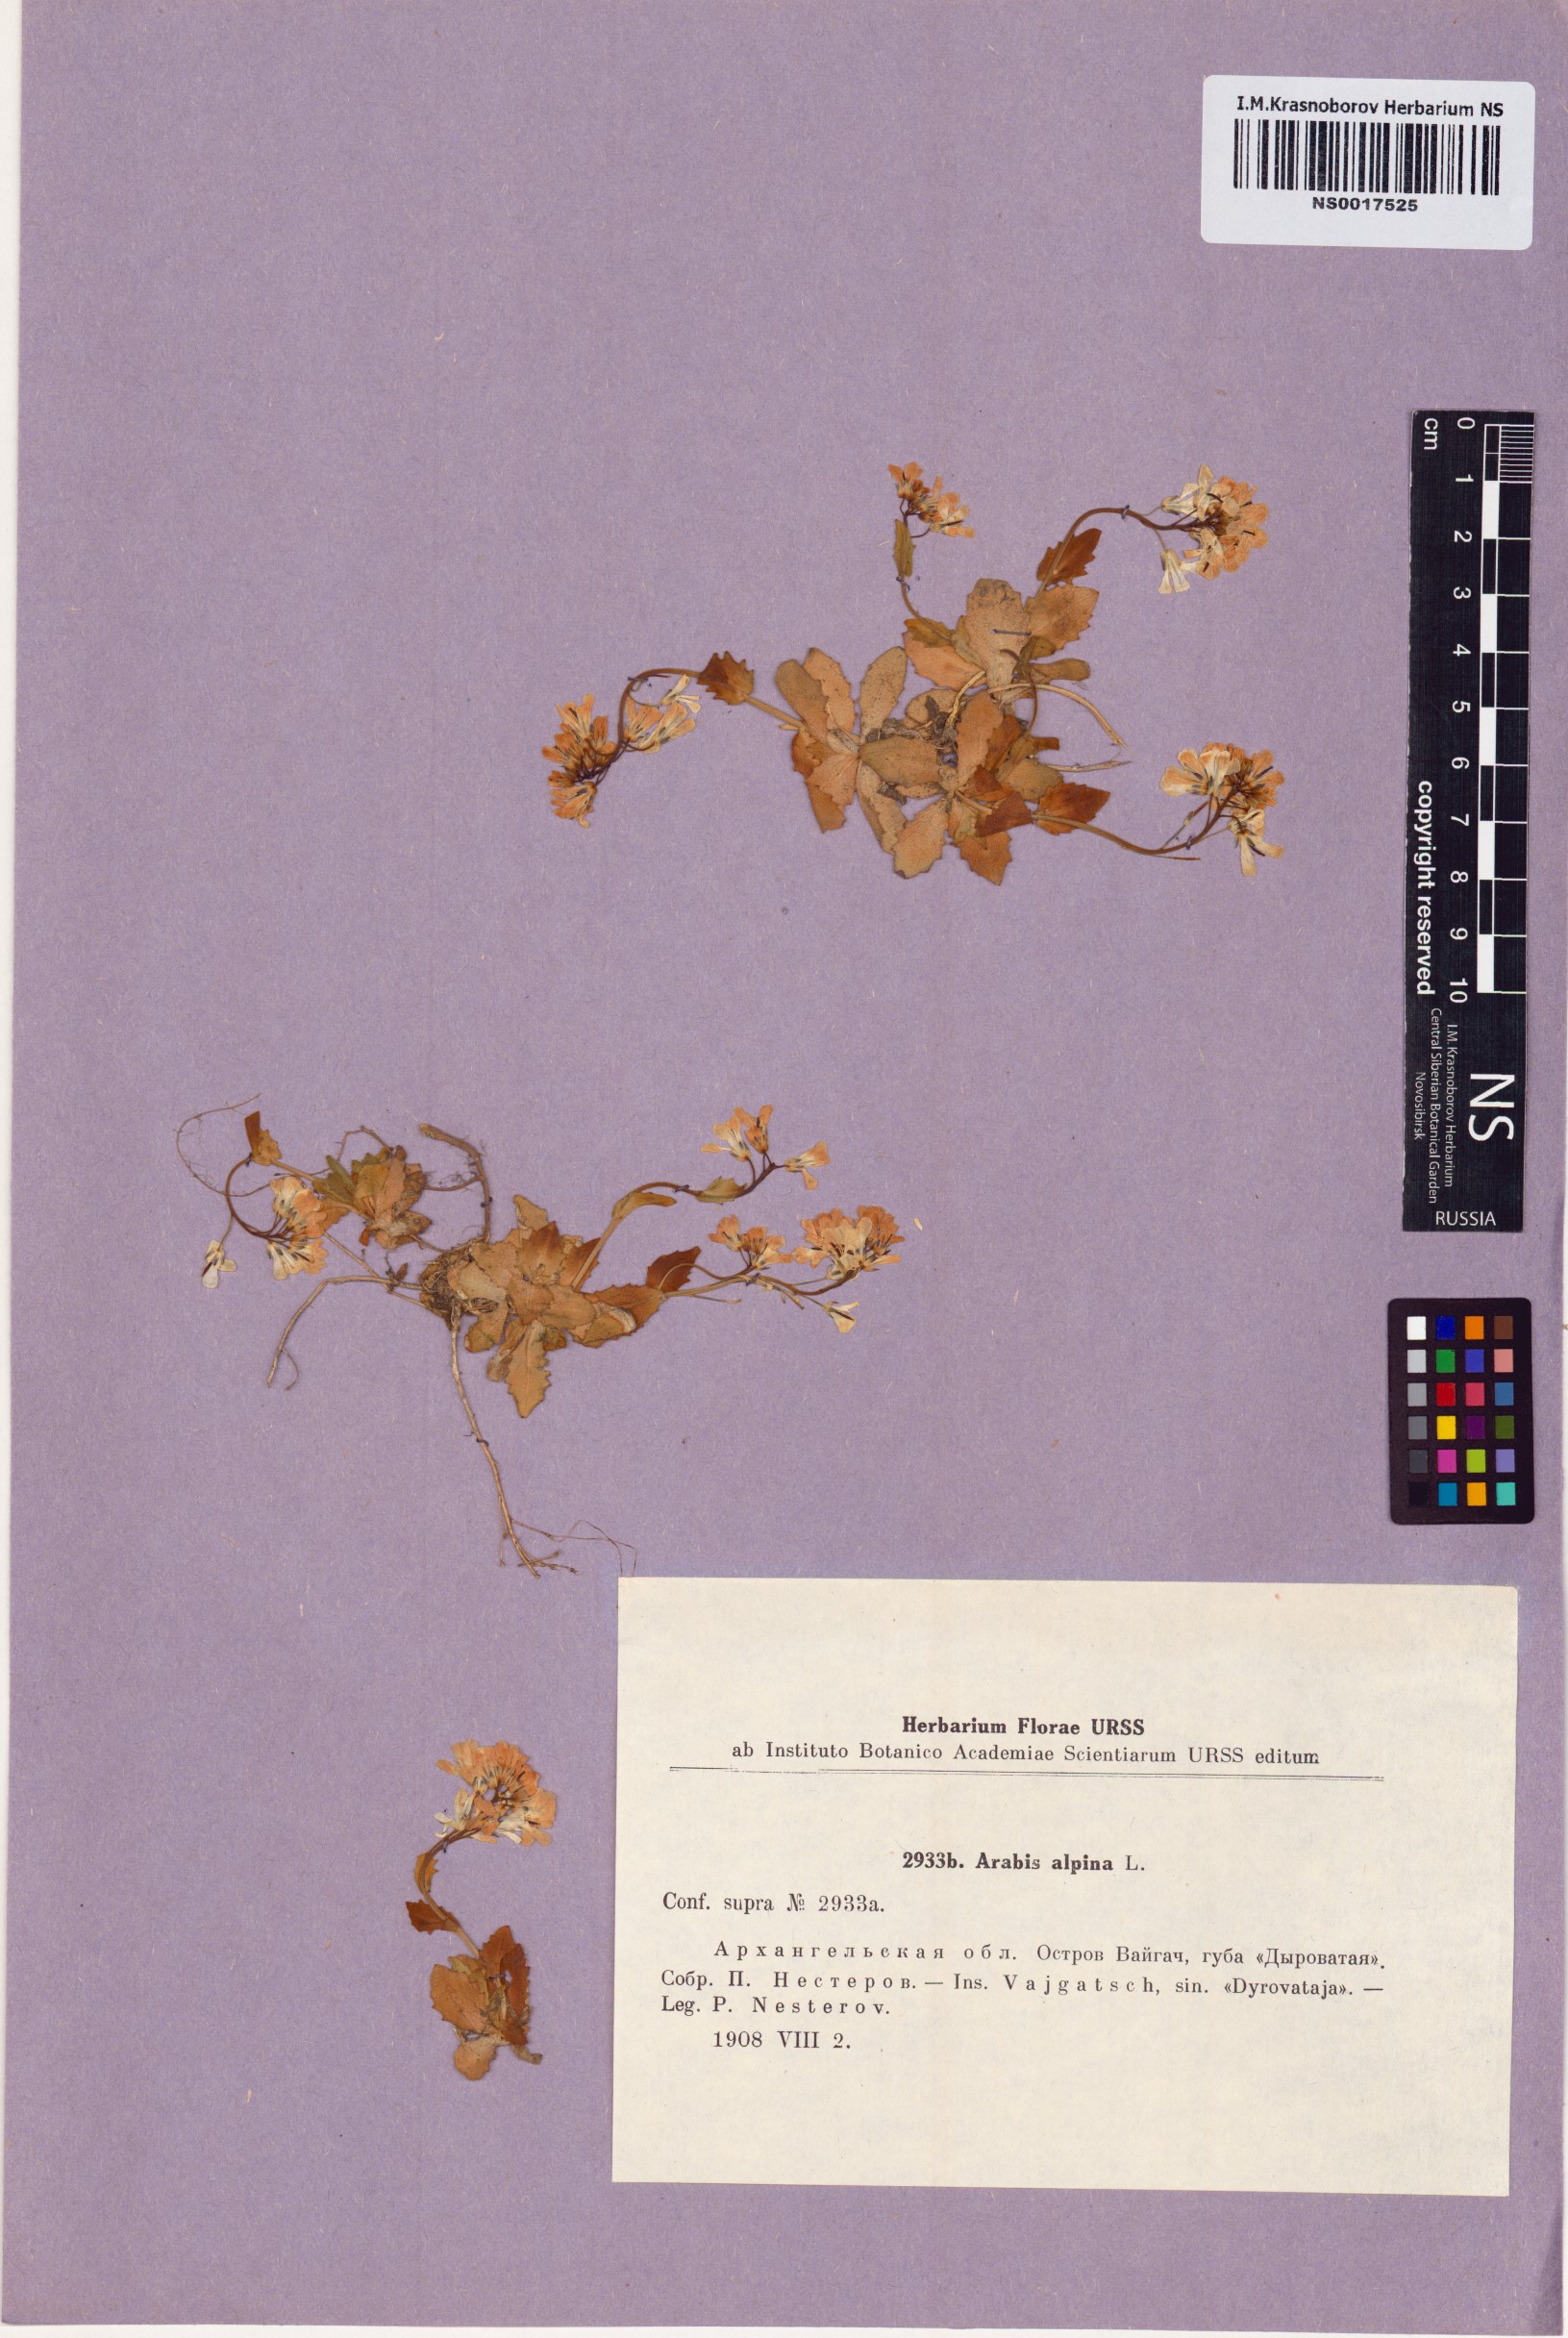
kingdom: Plantae
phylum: Tracheophyta
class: Magnoliopsida
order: Brassicales
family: Brassicaceae
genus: Arabis
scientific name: Arabis alpina
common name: Alpine rock-cress
